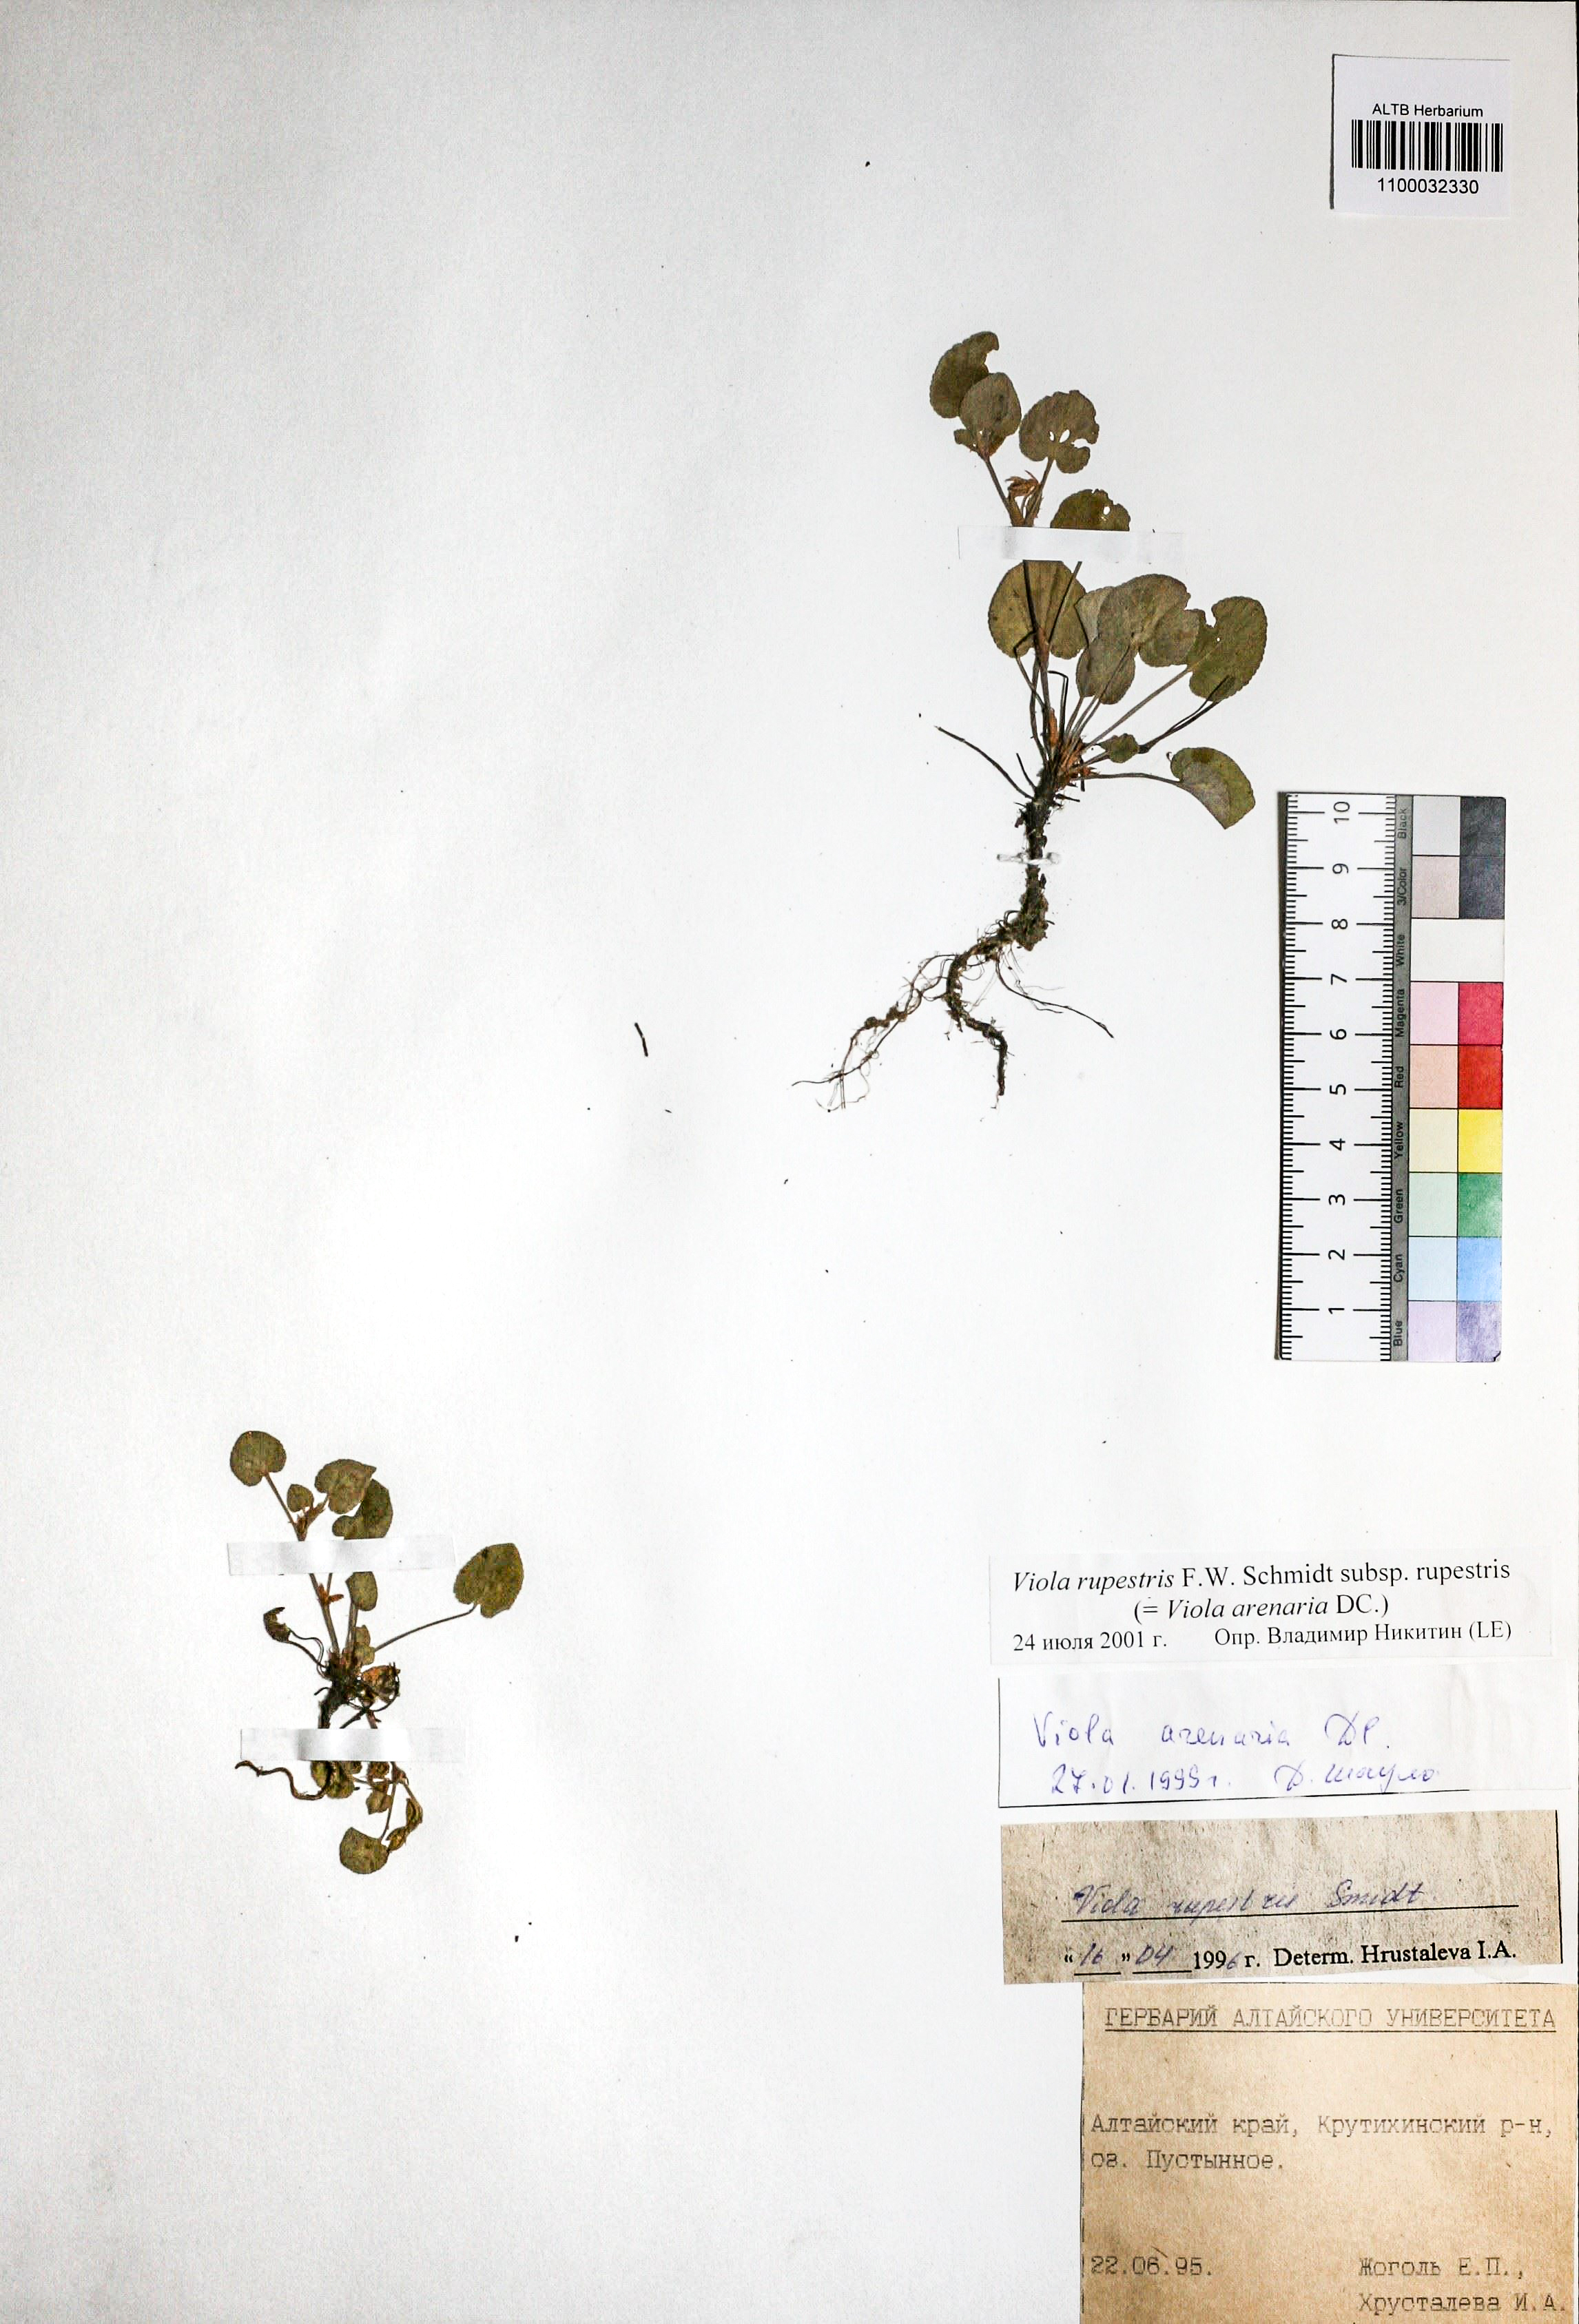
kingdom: Plantae
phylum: Tracheophyta
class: Magnoliopsida
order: Malpighiales
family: Violaceae
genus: Viola
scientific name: Viola rupestris
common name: Teesdale violet
